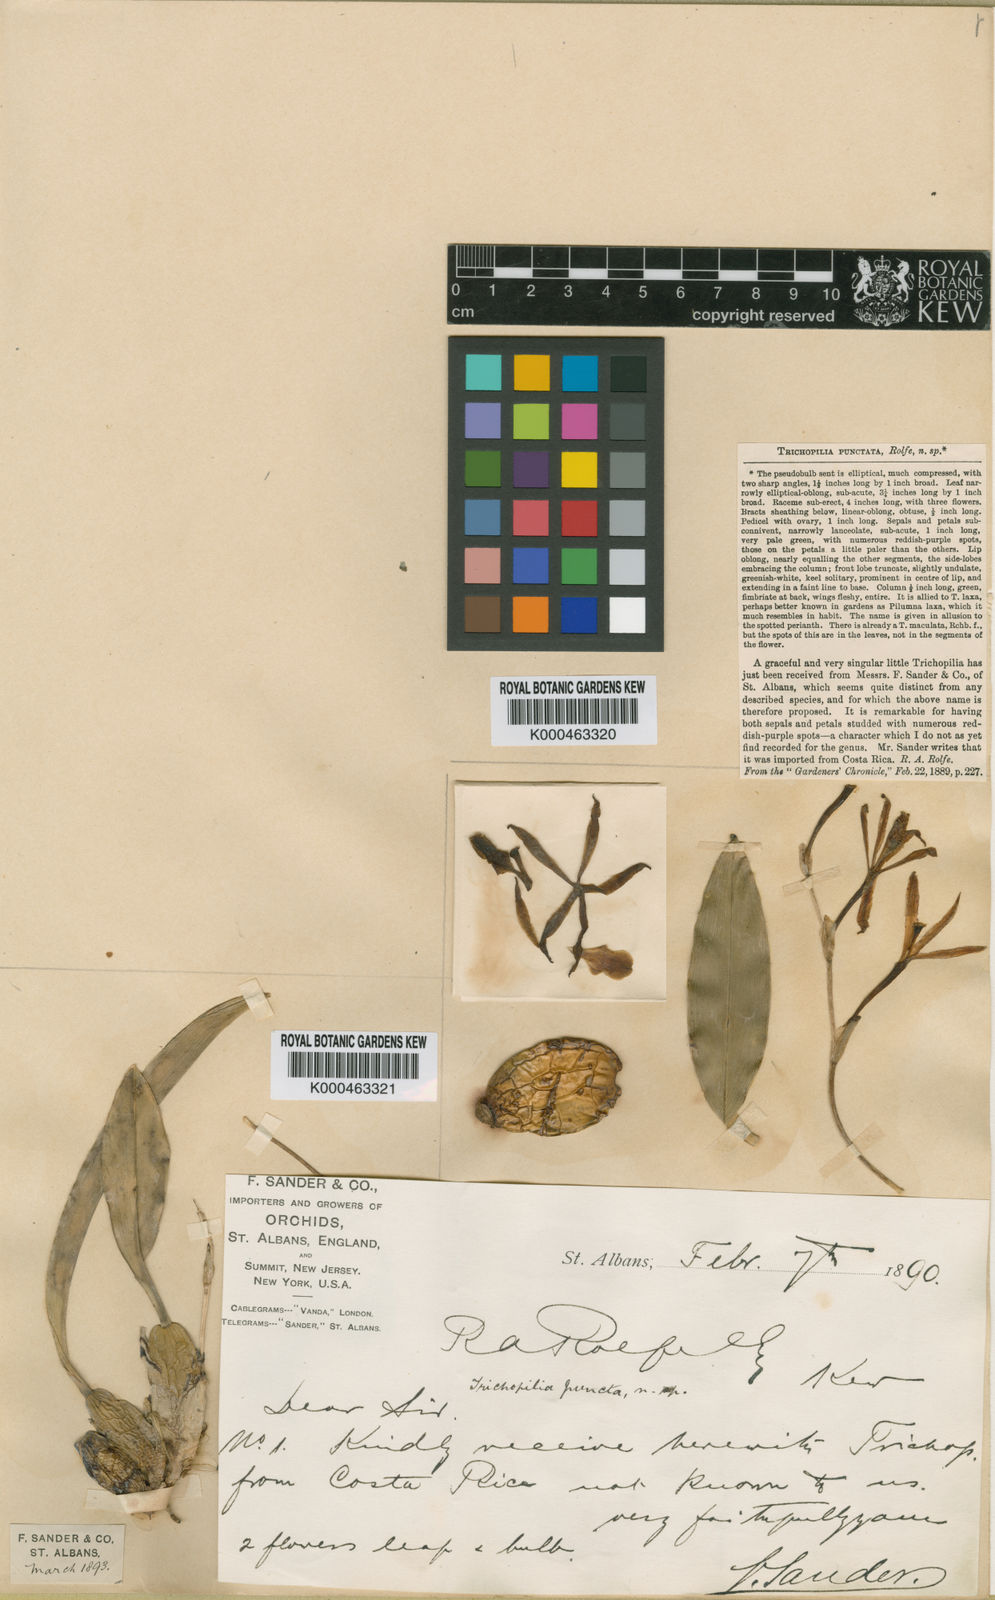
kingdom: Plantae
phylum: Tracheophyta
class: Liliopsida
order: Asparagales
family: Orchidaceae
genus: Trichopilia
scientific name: Trichopilia punctata
